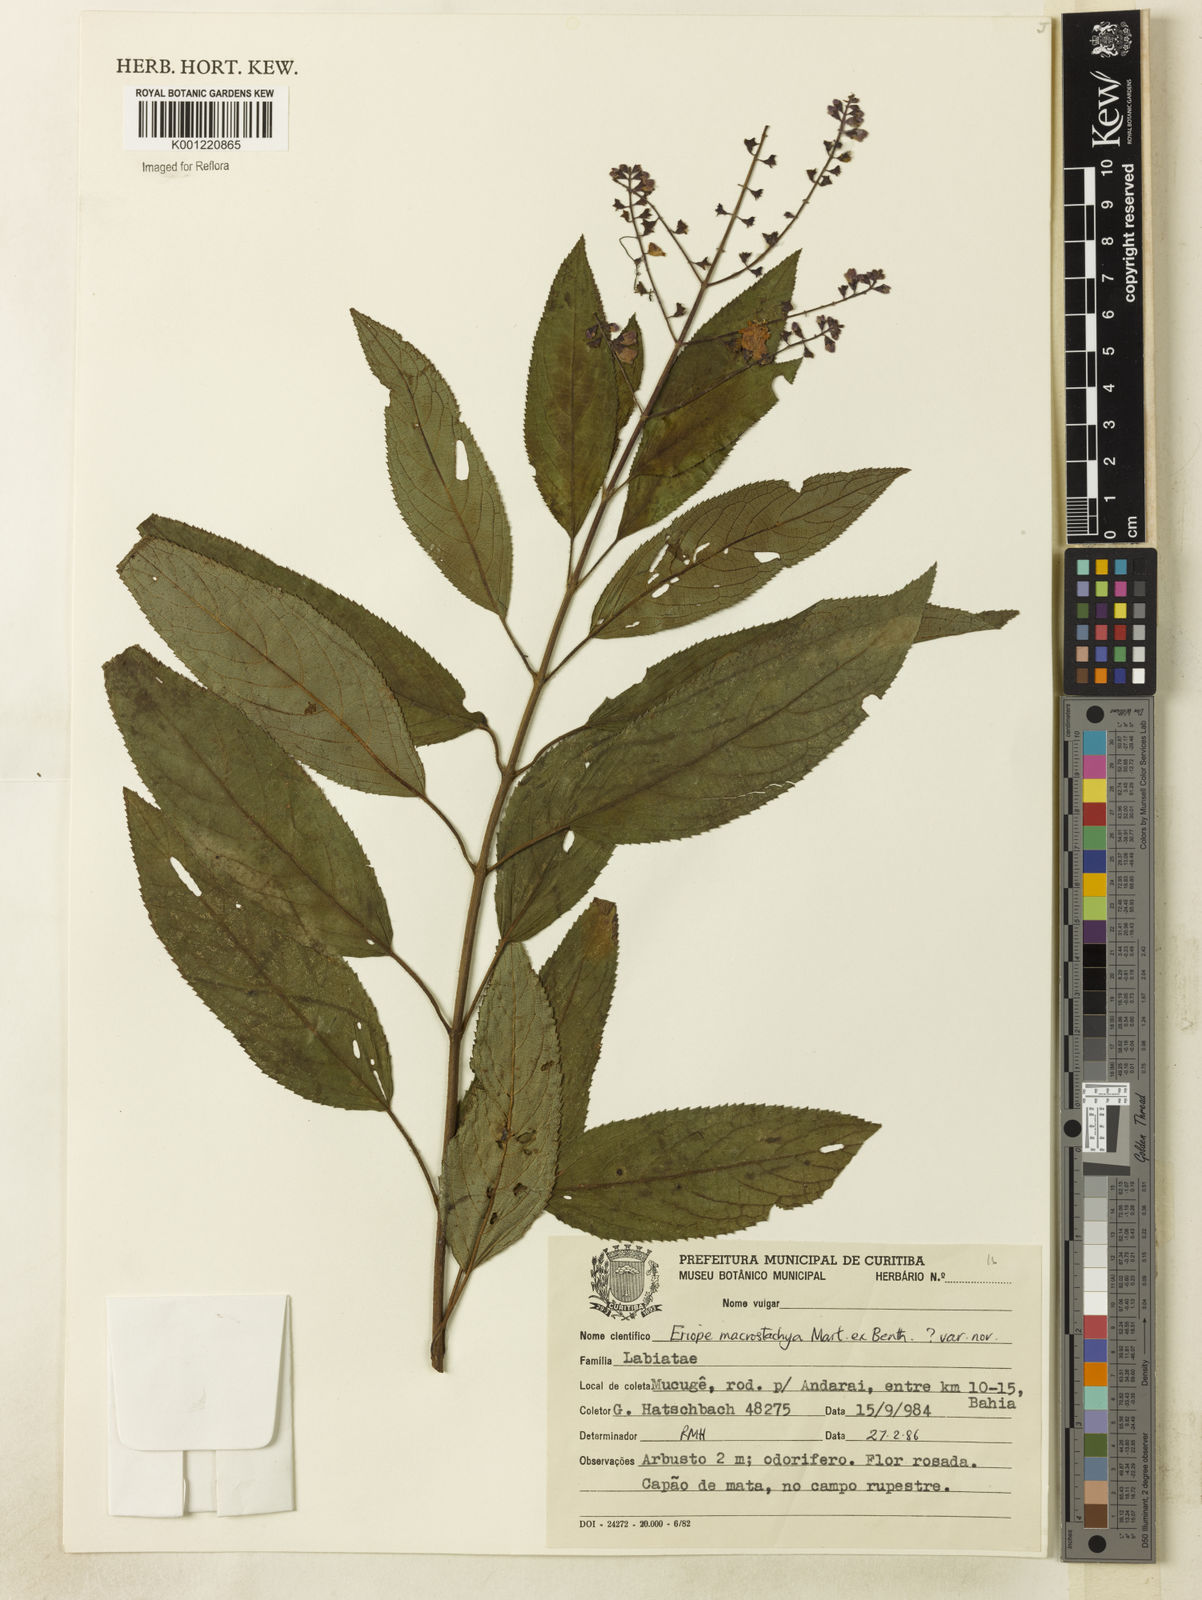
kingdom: Plantae
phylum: Tracheophyta
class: Magnoliopsida
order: Lamiales
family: Lamiaceae
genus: Eriope
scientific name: Eriope macrostachya
